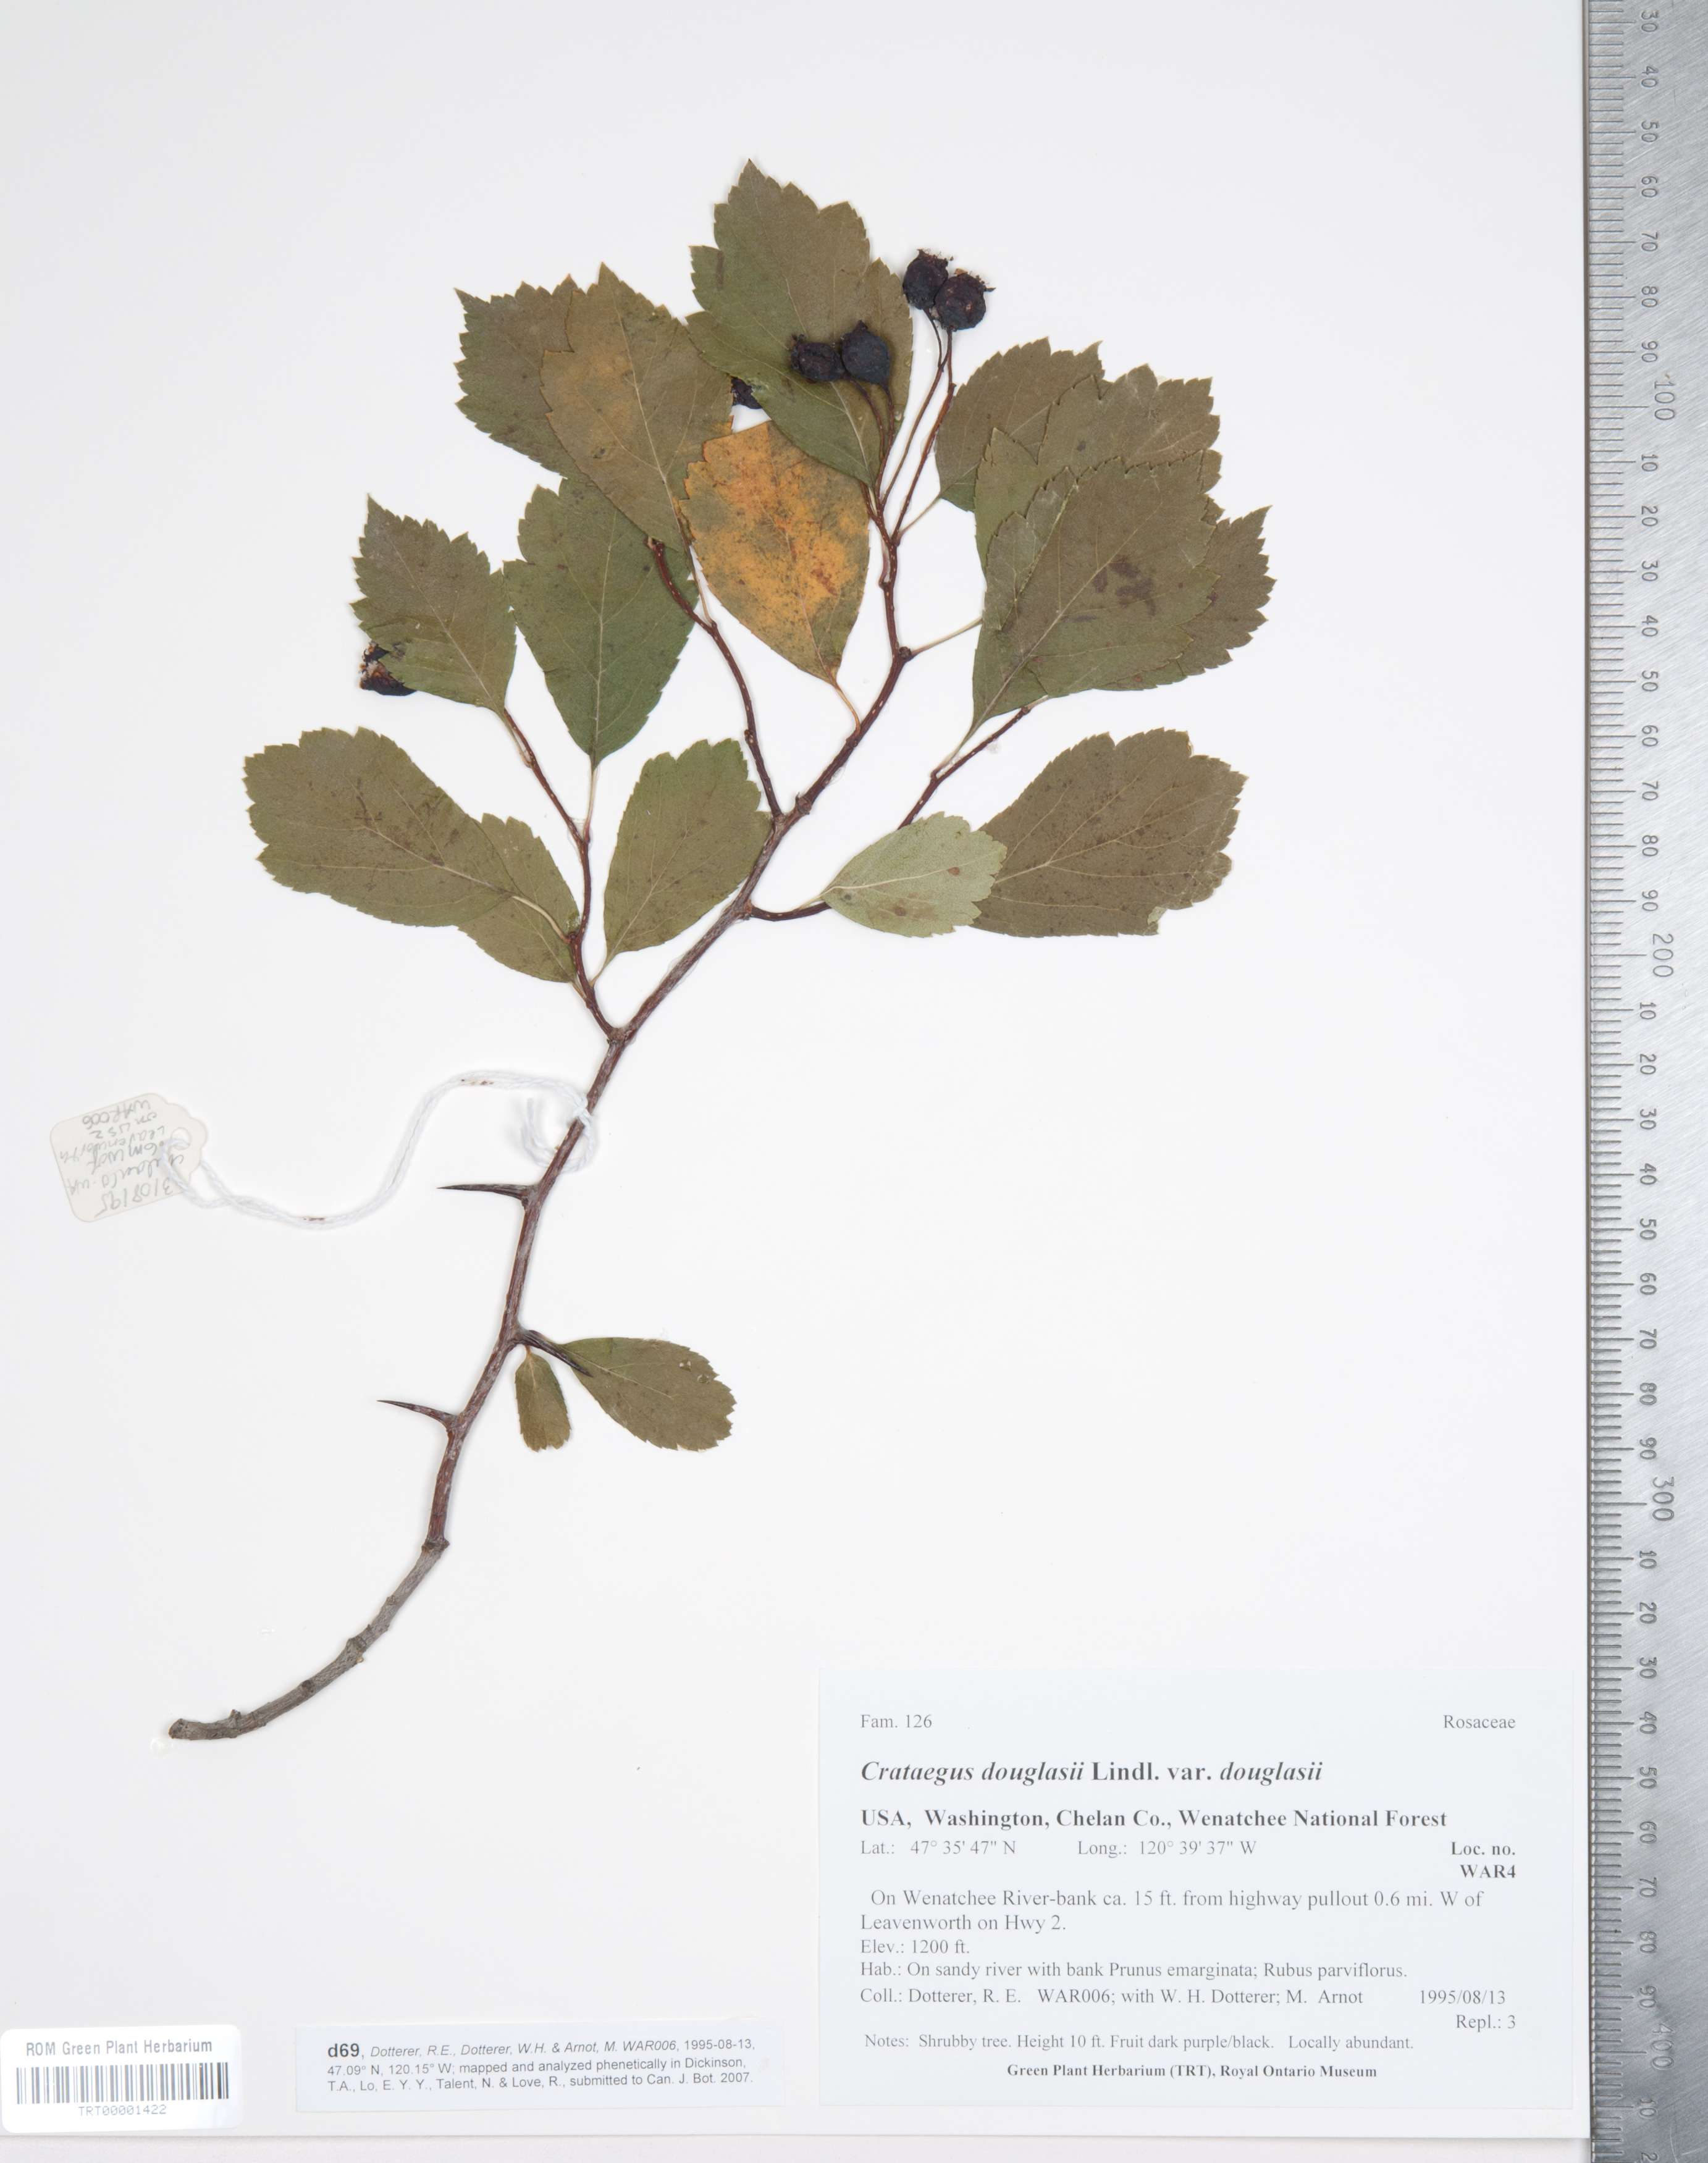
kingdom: Plantae
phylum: Tracheophyta
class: Magnoliopsida
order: Rosales
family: Rosaceae
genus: Crataegus
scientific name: Crataegus douglasii
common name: Black hawthorn
